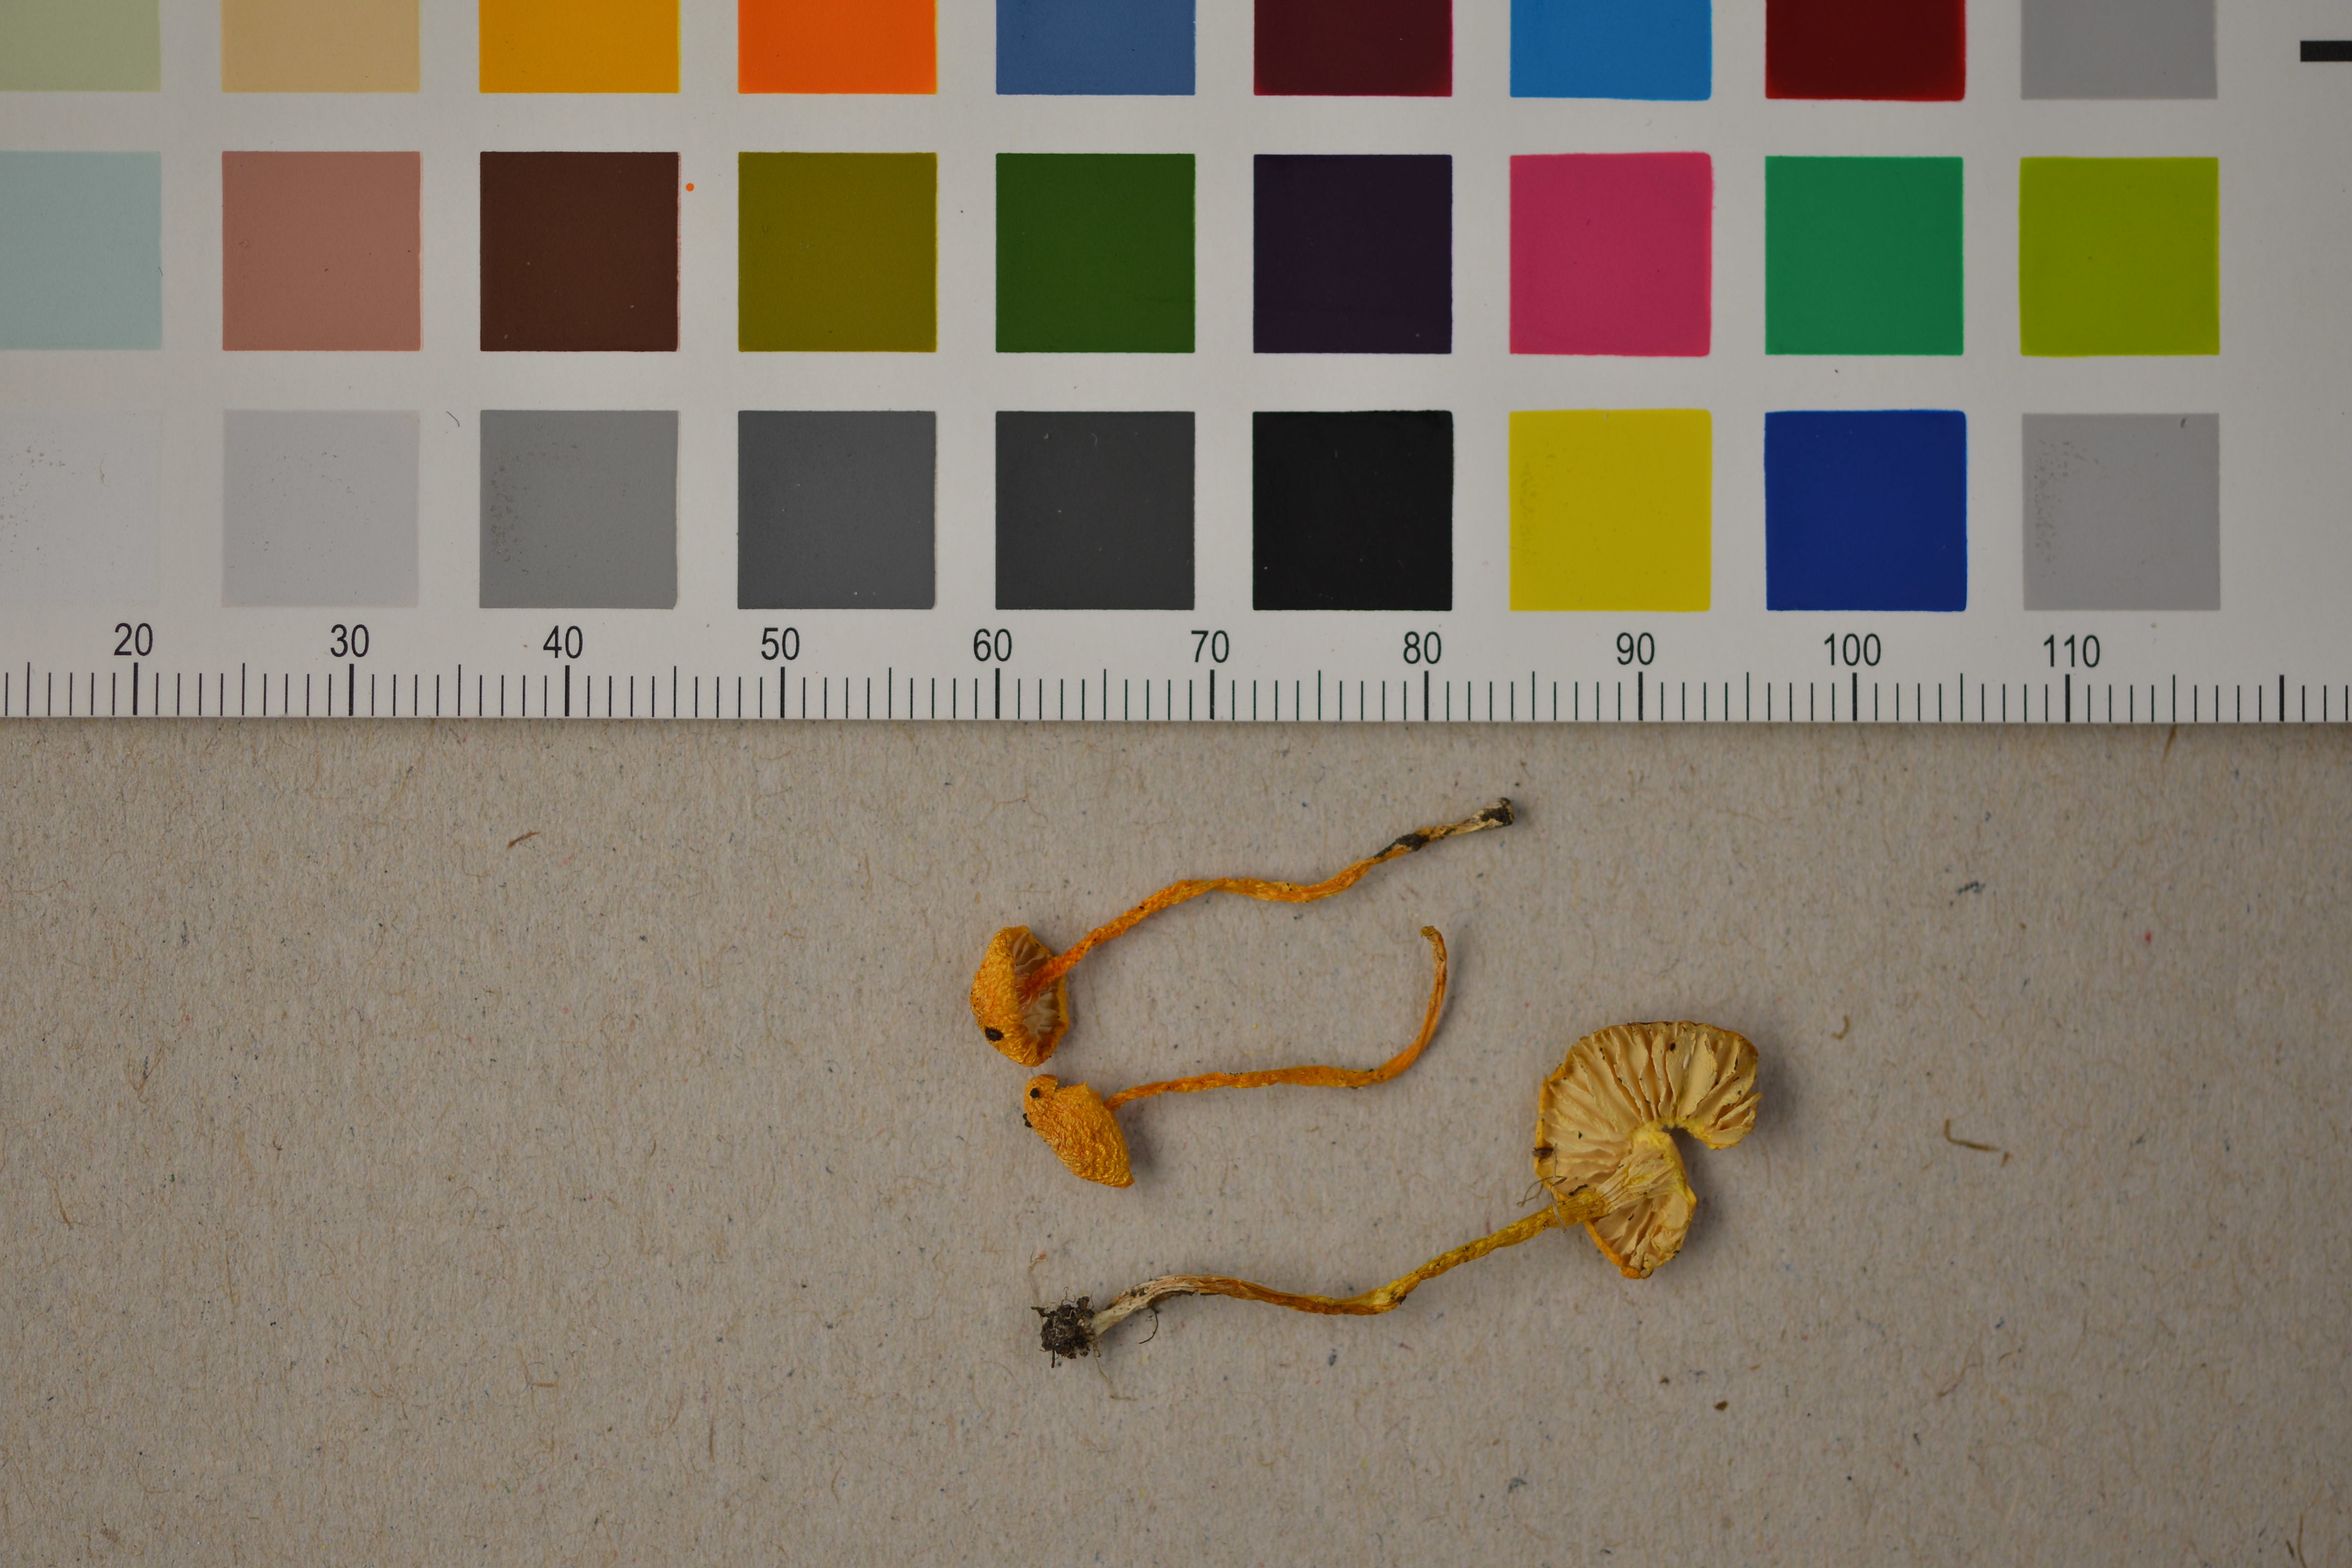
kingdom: Fungi
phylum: Basidiomycota
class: Agaricomycetes
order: Agaricales
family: Hygrophoraceae
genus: Hygrocybe
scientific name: Hygrocybe insipida
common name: Spangle waxcap
